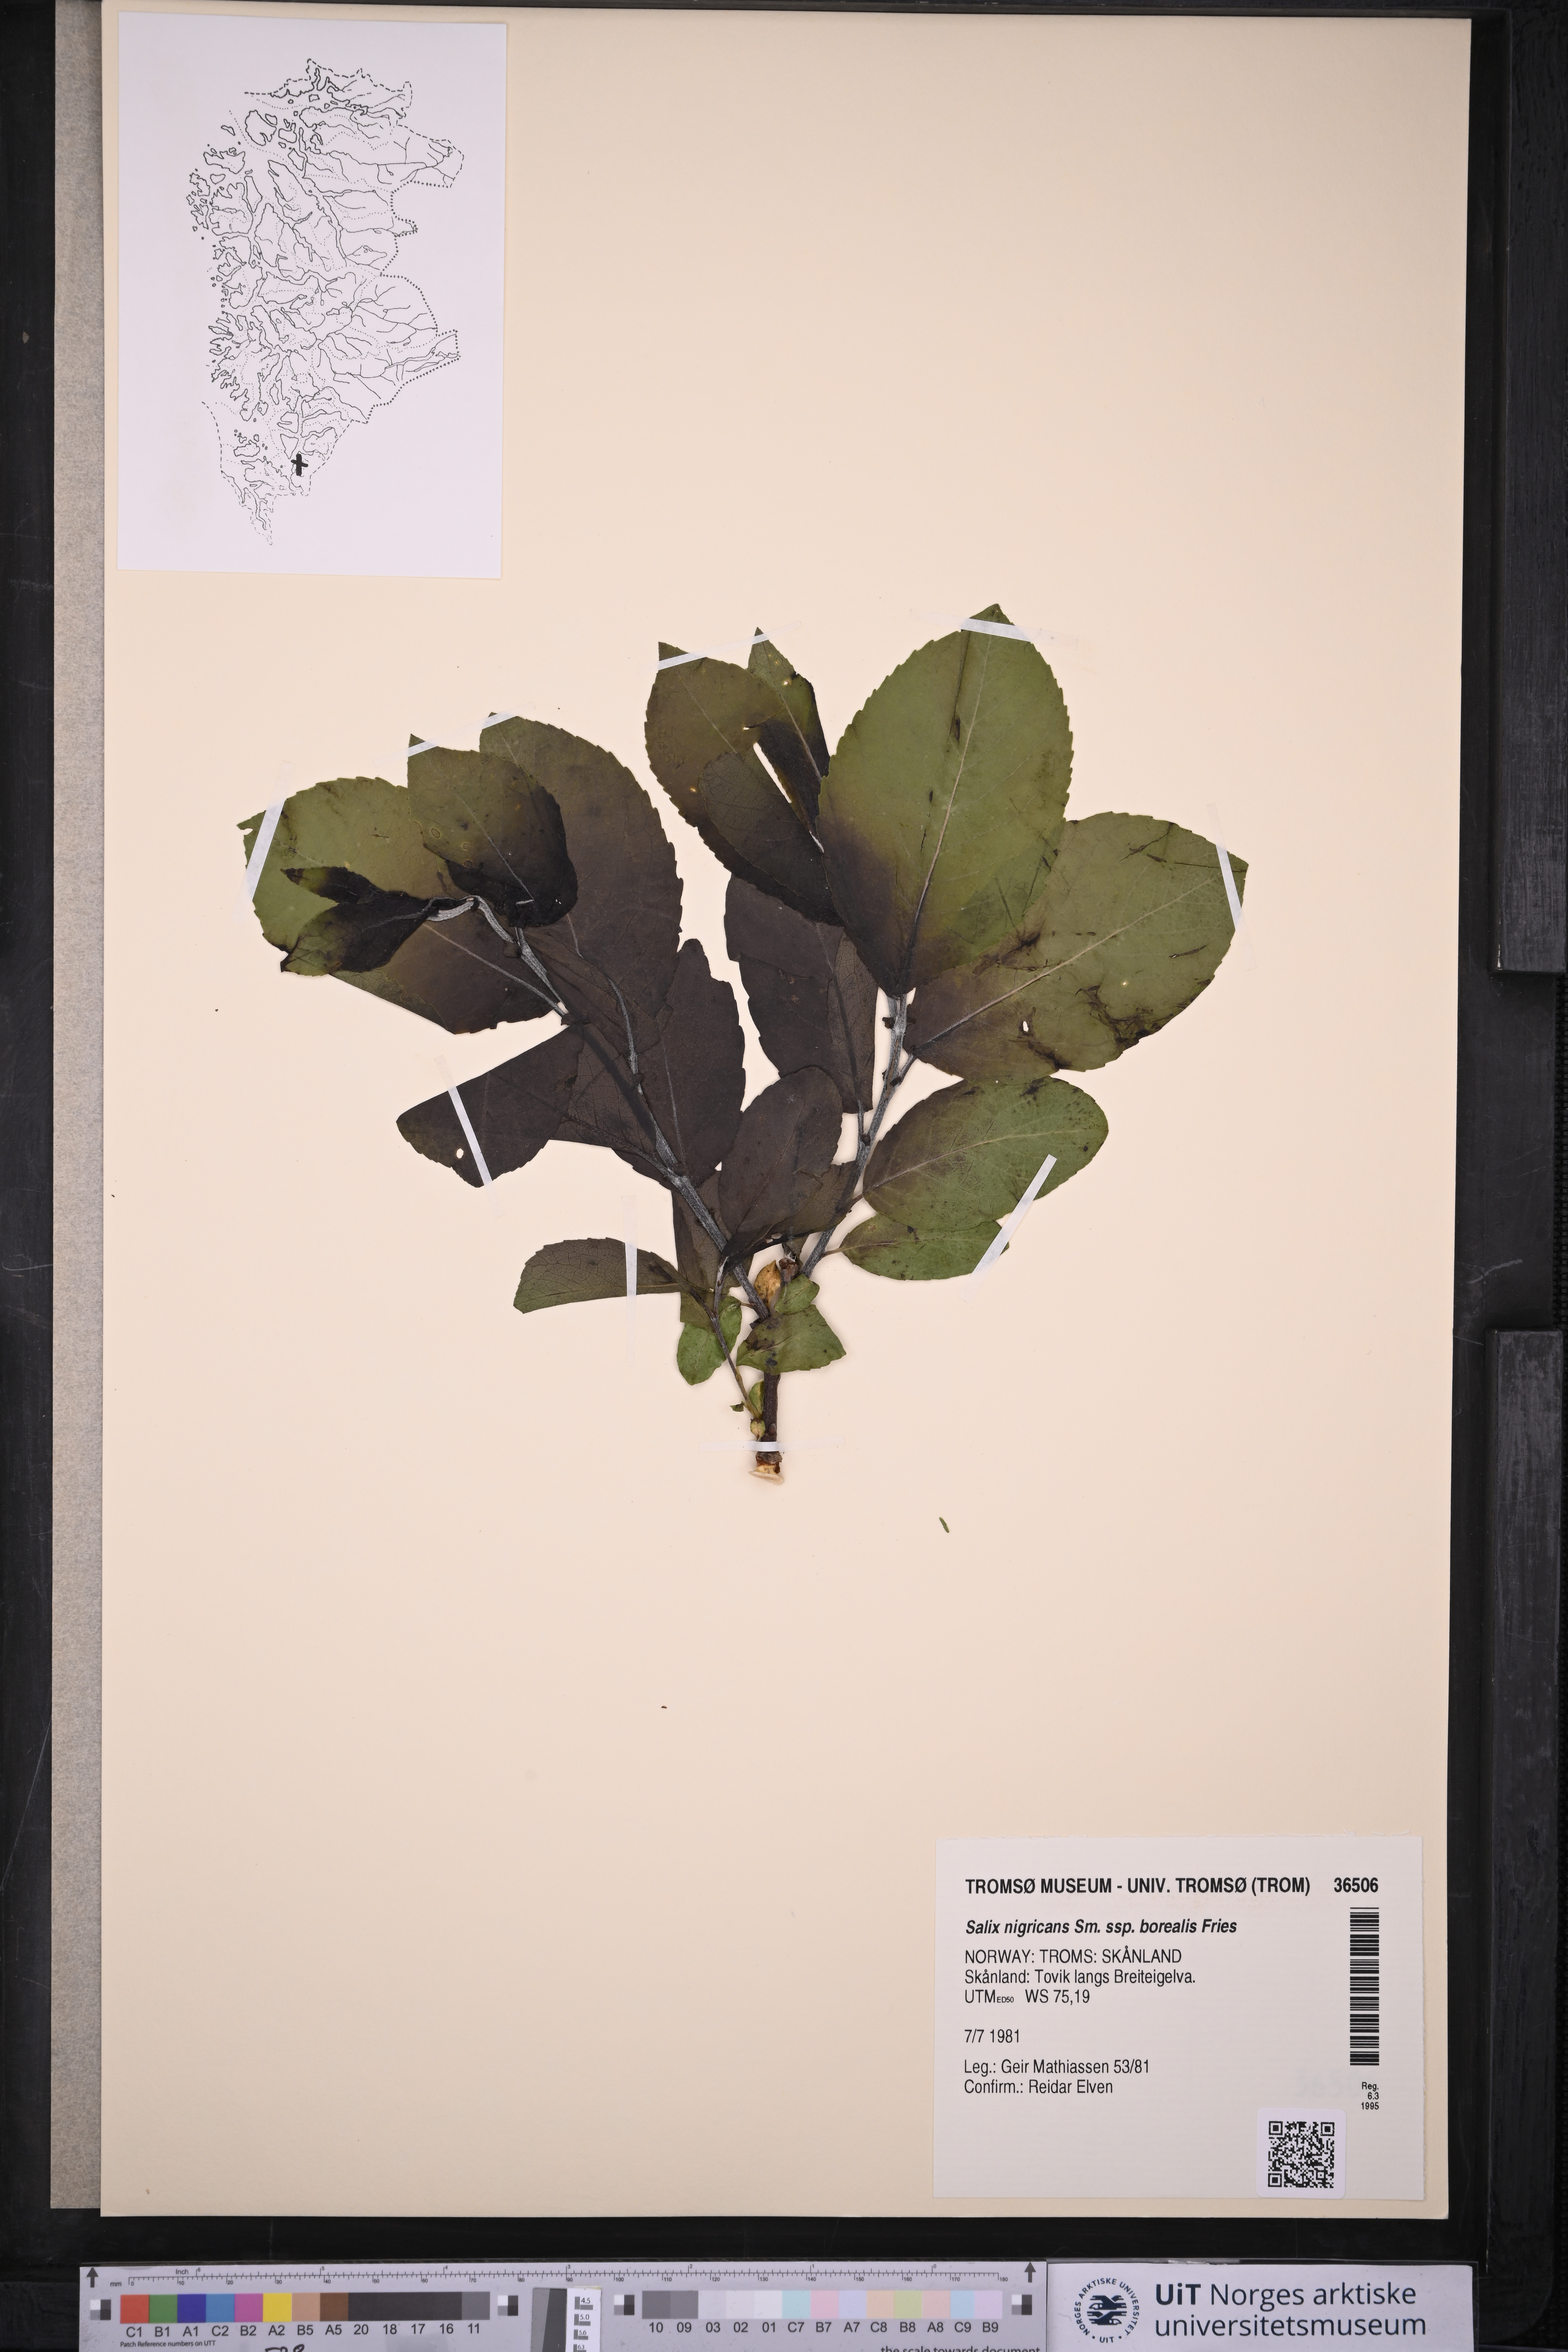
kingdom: Plantae
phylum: Tracheophyta
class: Magnoliopsida
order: Malpighiales
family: Salicaceae
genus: Salix
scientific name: Salix myrsinifolia
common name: Dark-leaved willow
